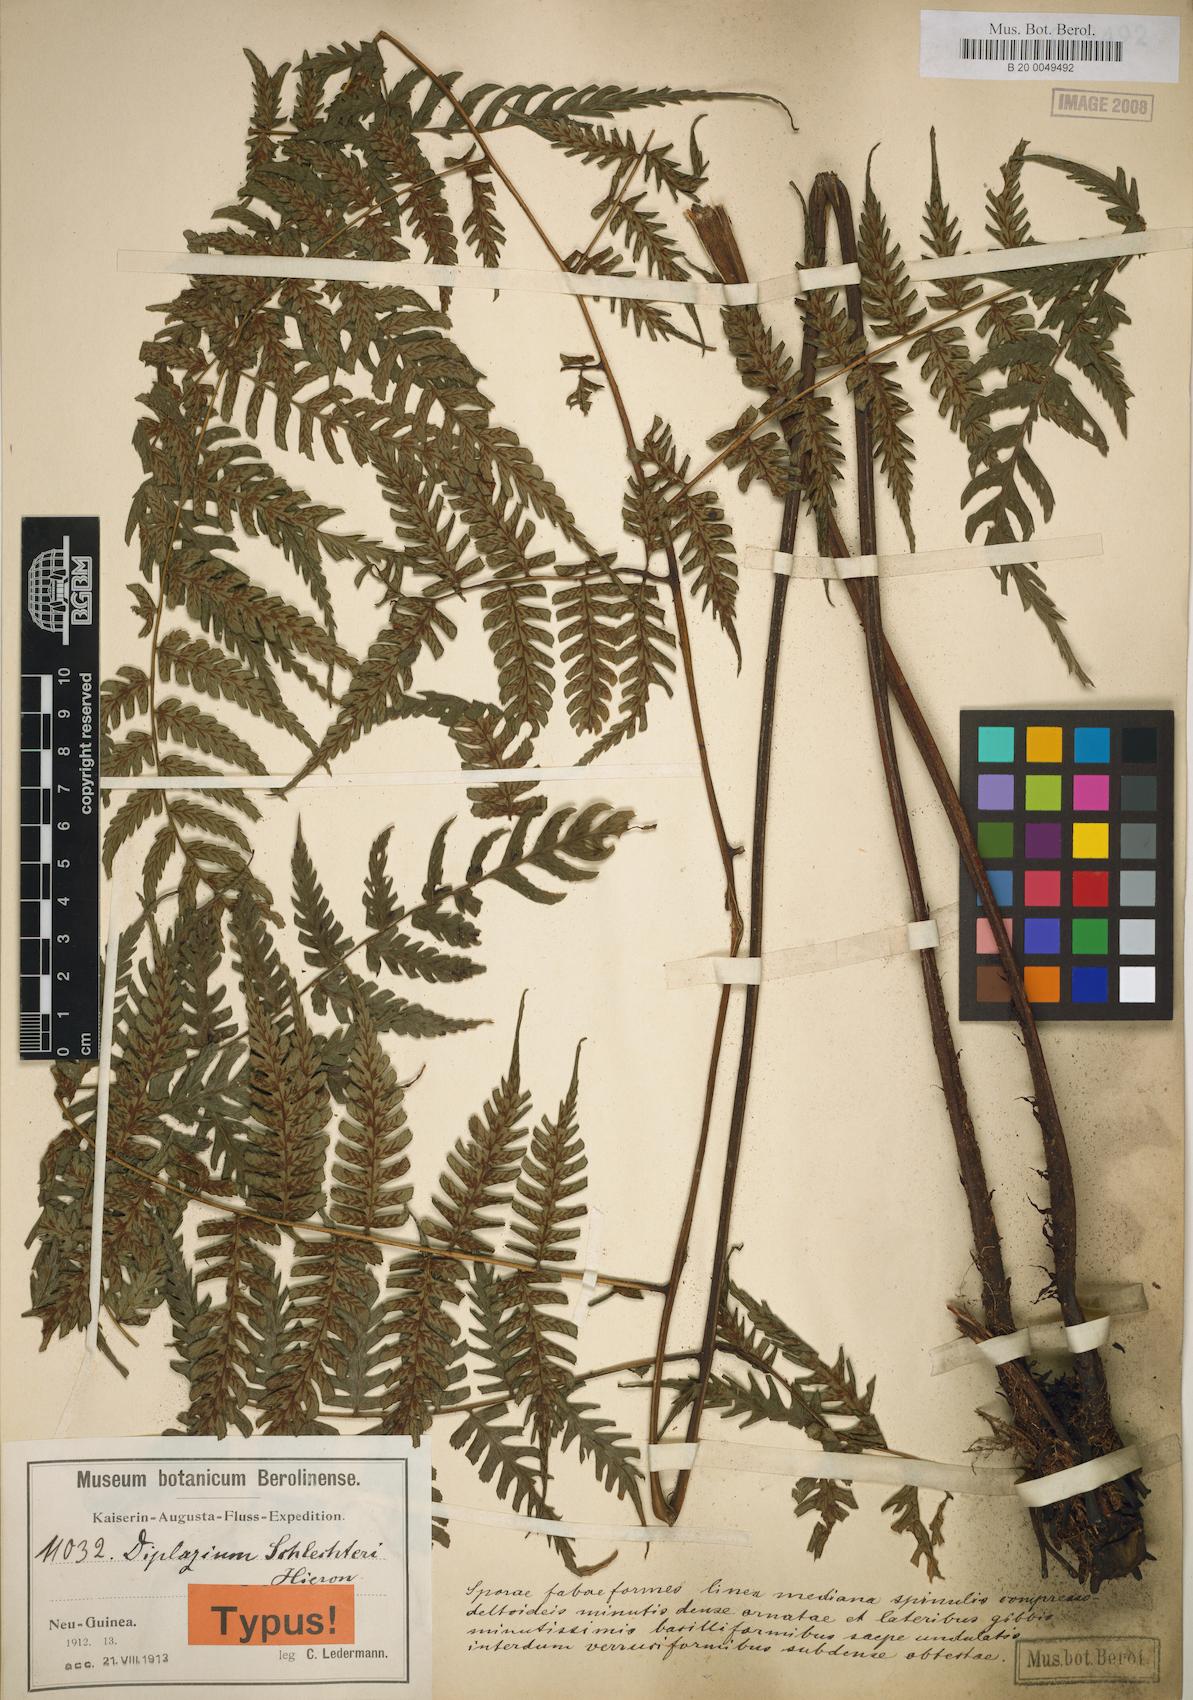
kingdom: Plantae
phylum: Tracheophyta
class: Polypodiopsida
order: Polypodiales
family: Athyriaceae
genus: Diplazium
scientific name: Diplazium schlechteri
